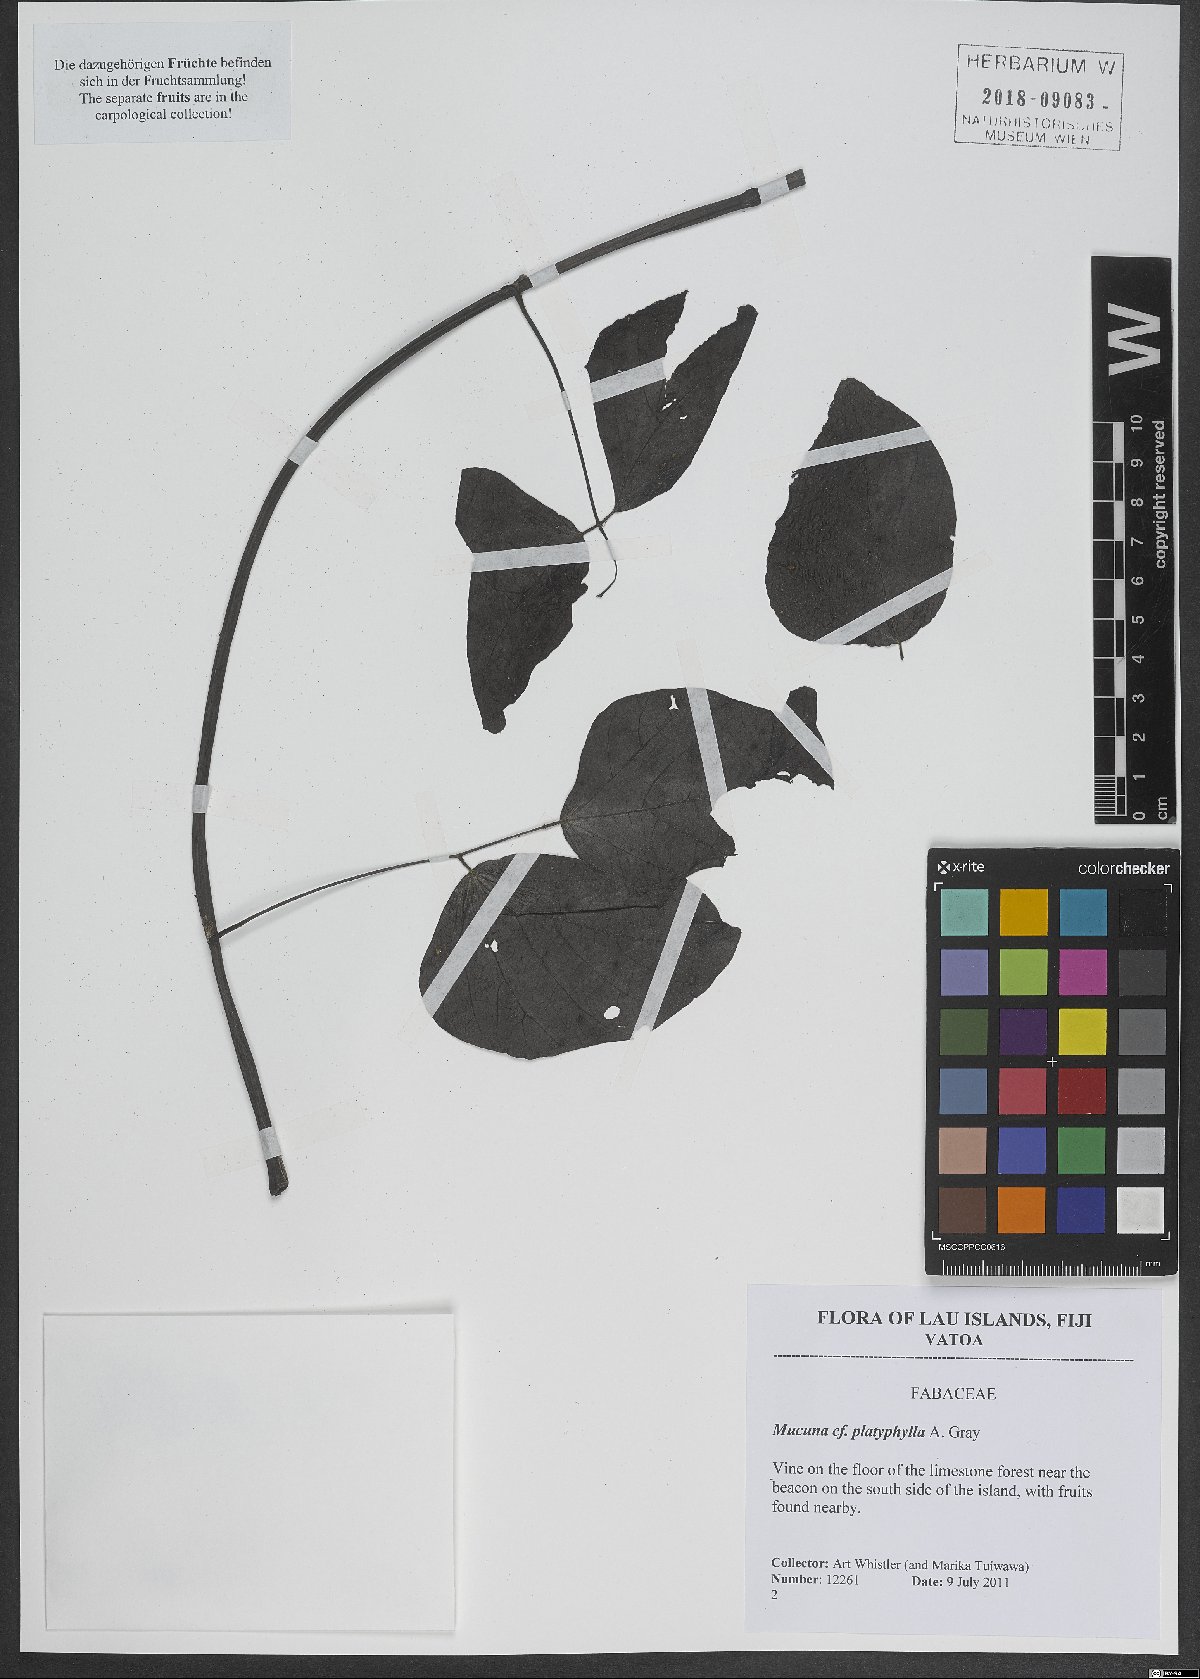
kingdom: Plantae
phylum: Tracheophyta
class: Magnoliopsida
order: Fabales
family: Fabaceae
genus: Mucuna
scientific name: Mucuna platyphylla
